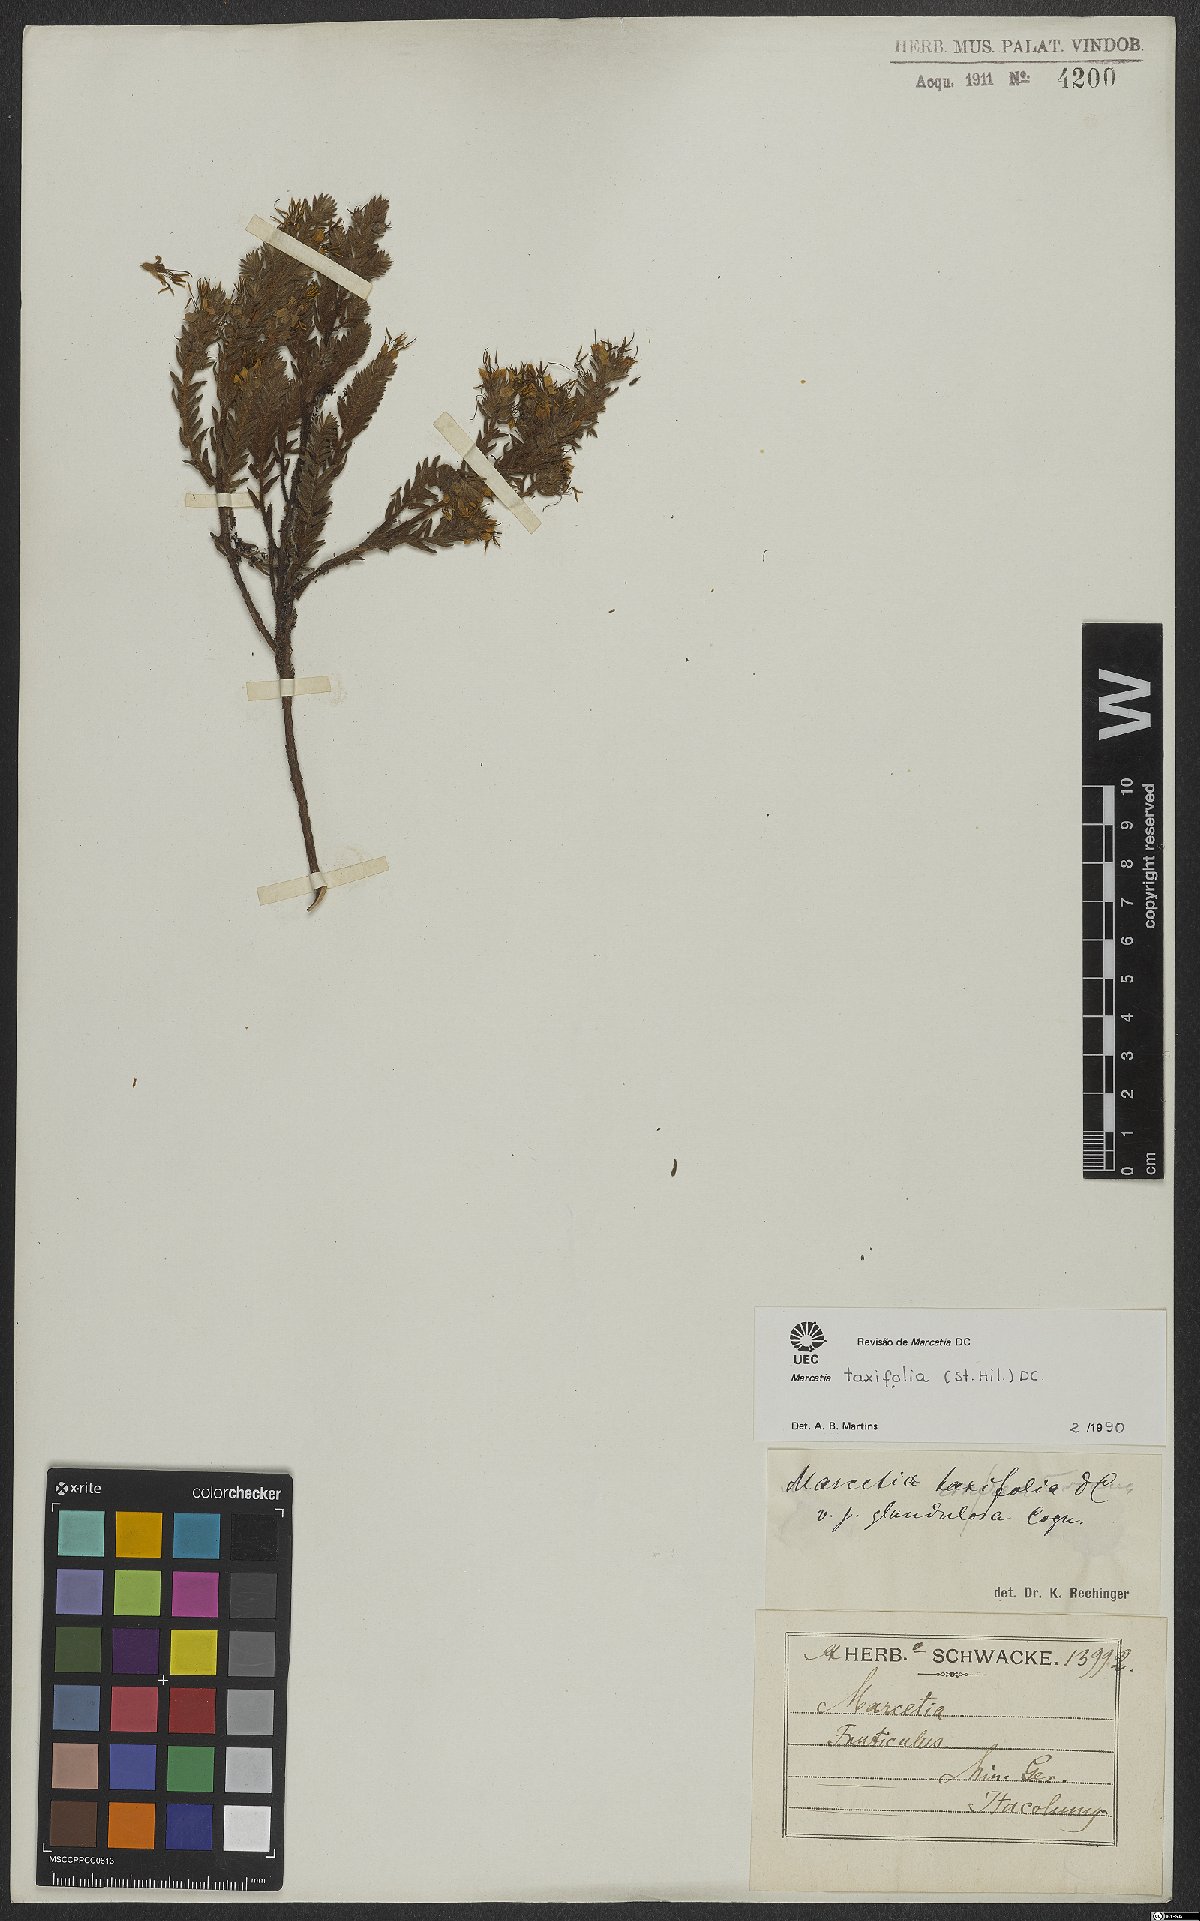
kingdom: Plantae
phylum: Tracheophyta
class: Magnoliopsida
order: Myrtales
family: Melastomataceae
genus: Marcetia
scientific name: Marcetia taxifolia
